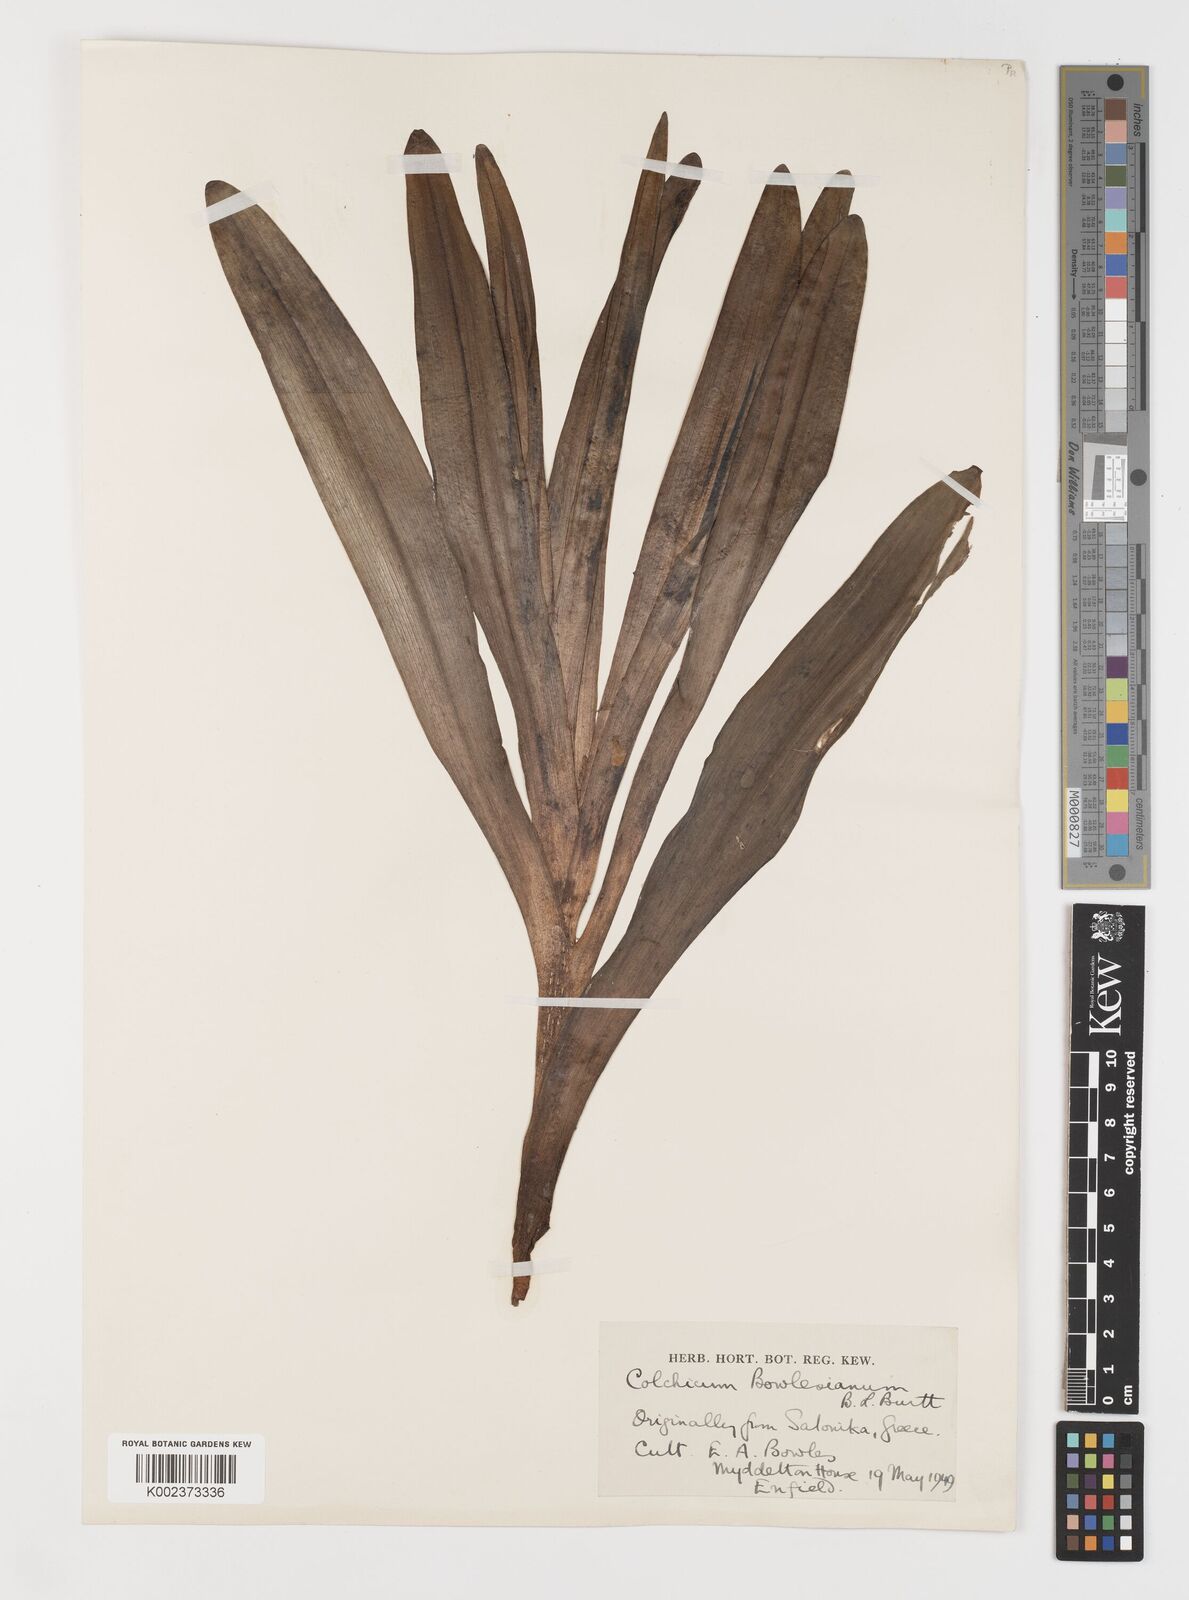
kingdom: Plantae
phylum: Tracheophyta
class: Liliopsida
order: Liliales
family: Colchicaceae
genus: Colchicum
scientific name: Colchicum bivonae
